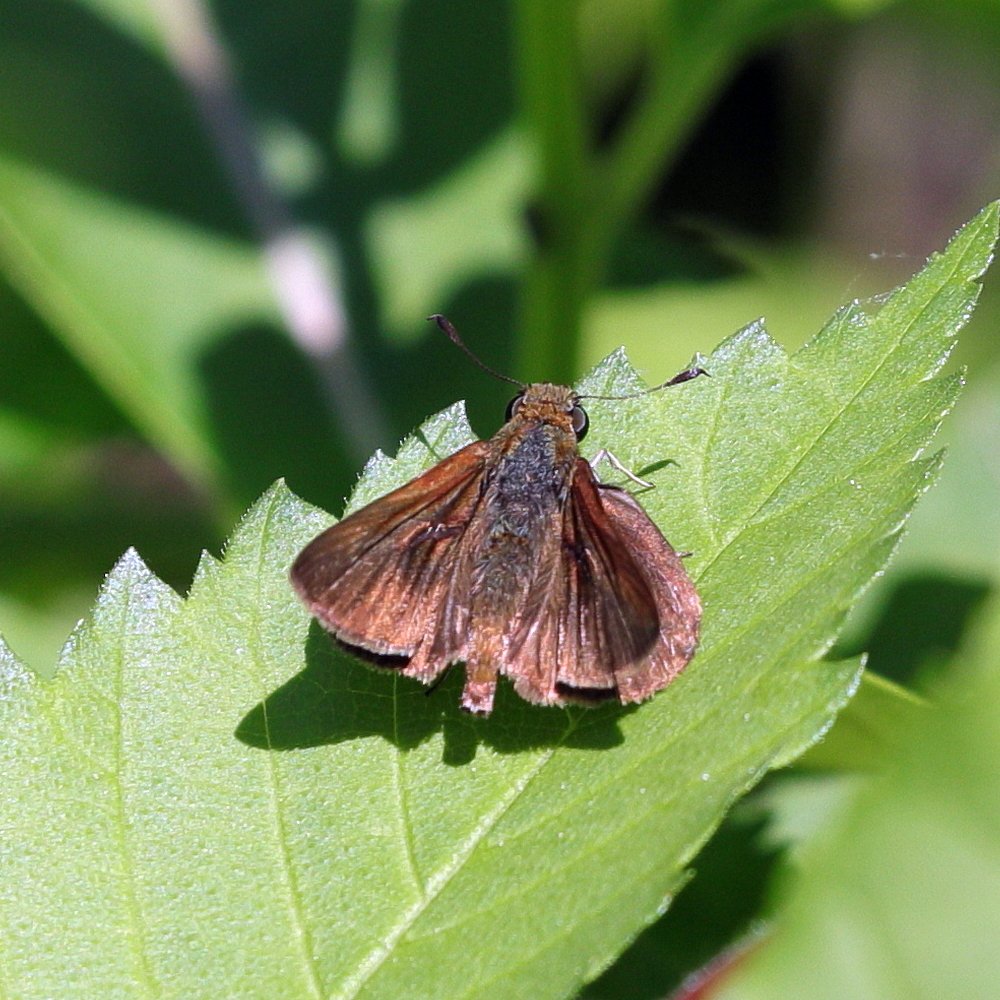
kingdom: Animalia
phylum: Arthropoda
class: Insecta
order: Lepidoptera
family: Hesperiidae
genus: Euphyes
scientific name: Euphyes vestris
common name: Dun Skipper
